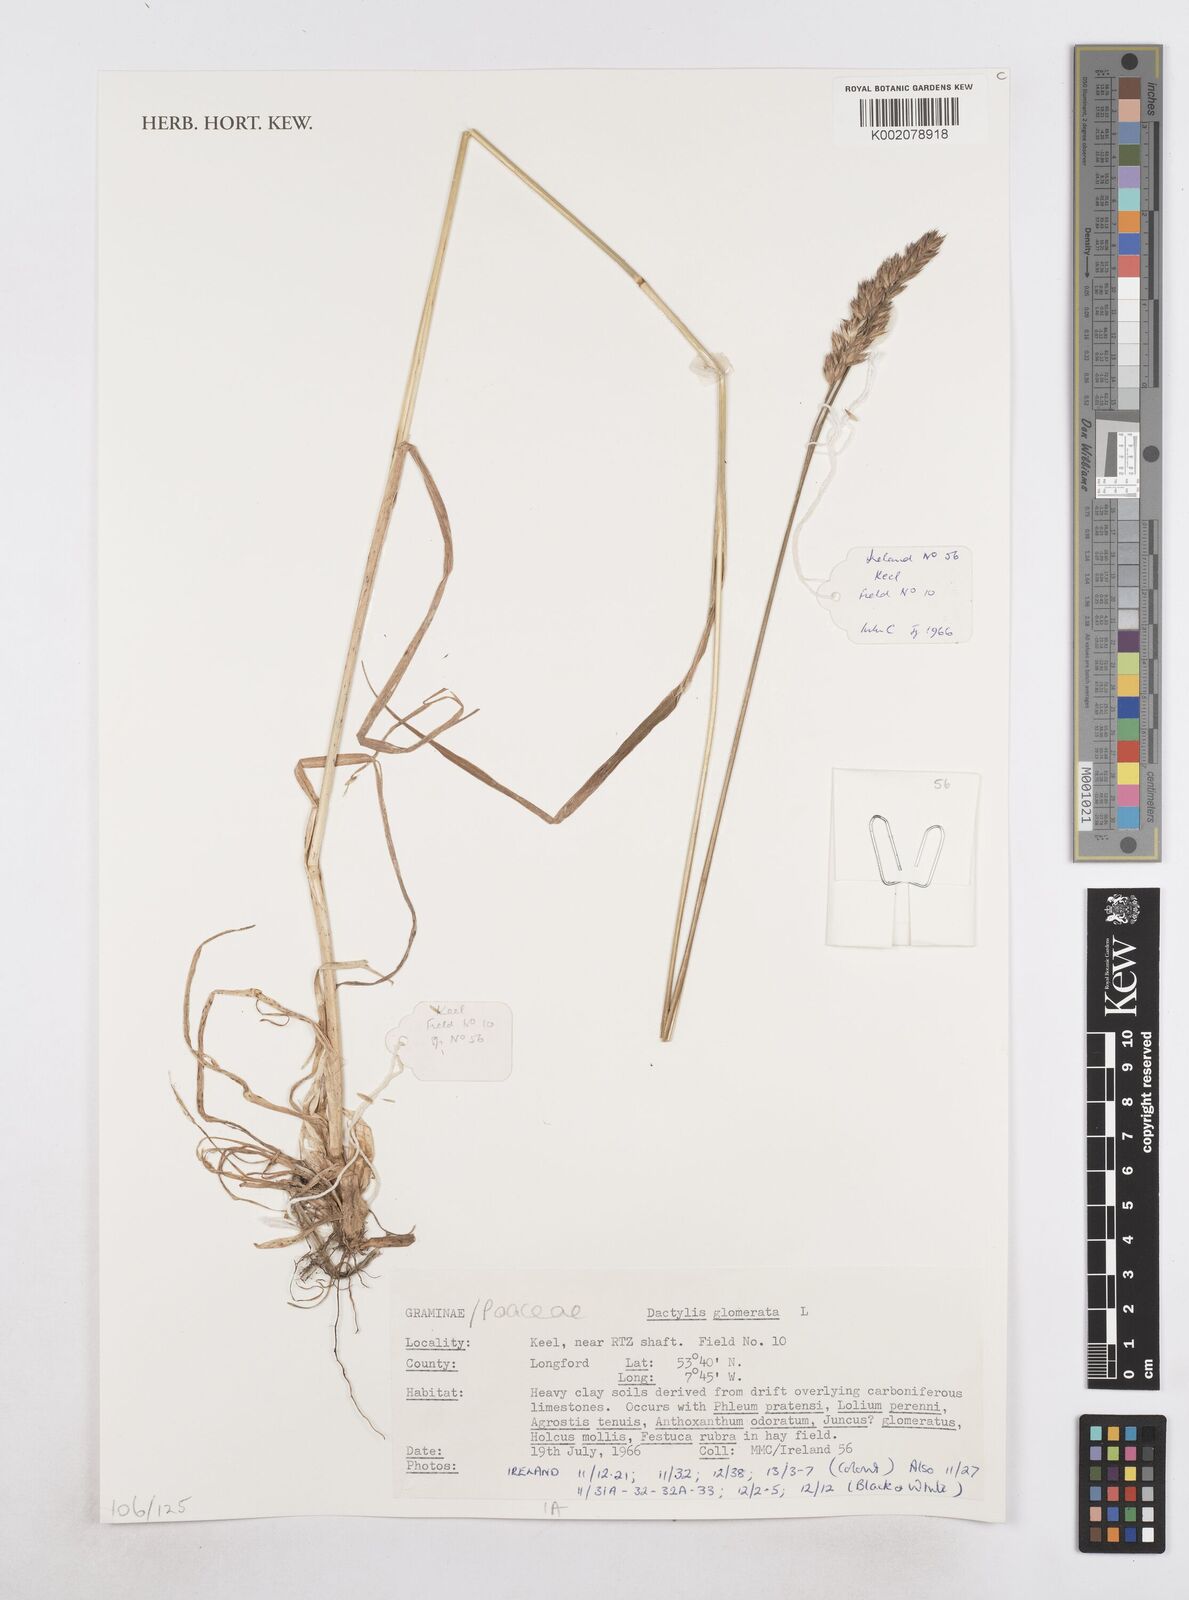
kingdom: Plantae
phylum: Tracheophyta
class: Liliopsida
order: Poales
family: Poaceae
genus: Dactylis
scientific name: Dactylis glomerata
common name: Orchardgrass
